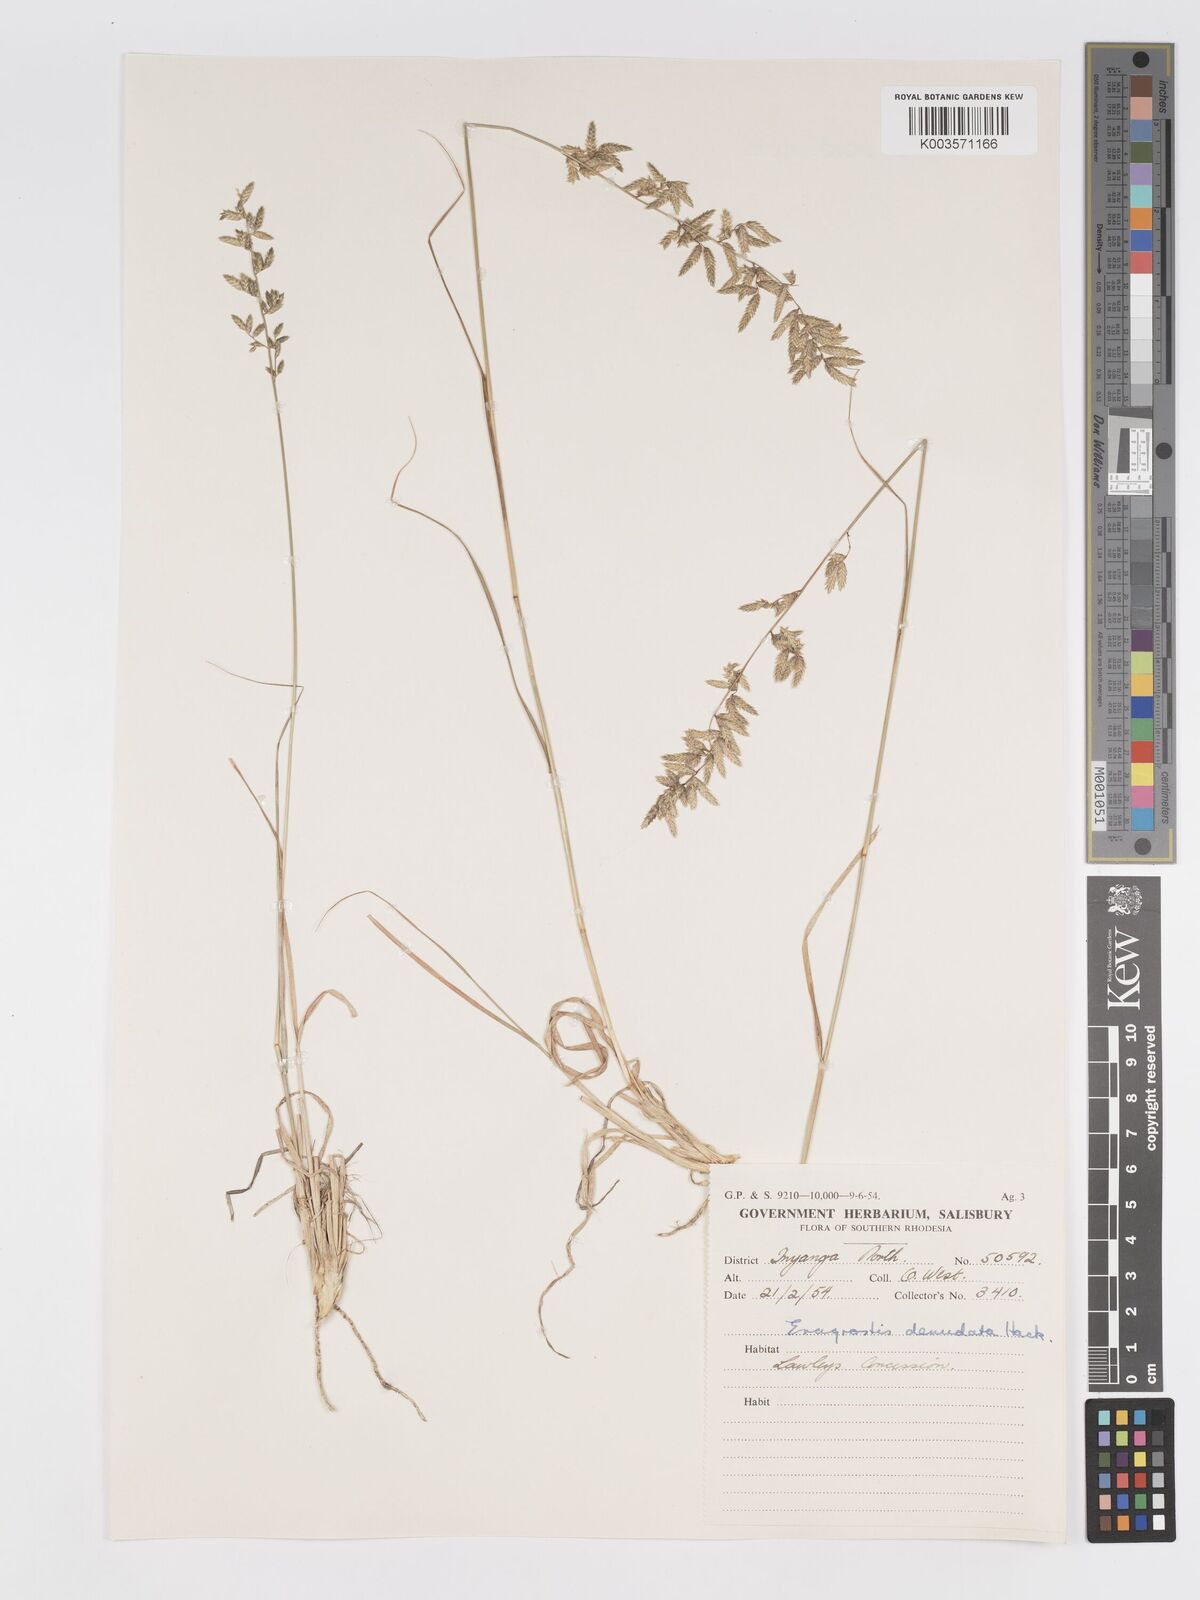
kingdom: Plantae
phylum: Tracheophyta
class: Liliopsida
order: Poales
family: Poaceae
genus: Eragrostis
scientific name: Eragrostis nindensis
